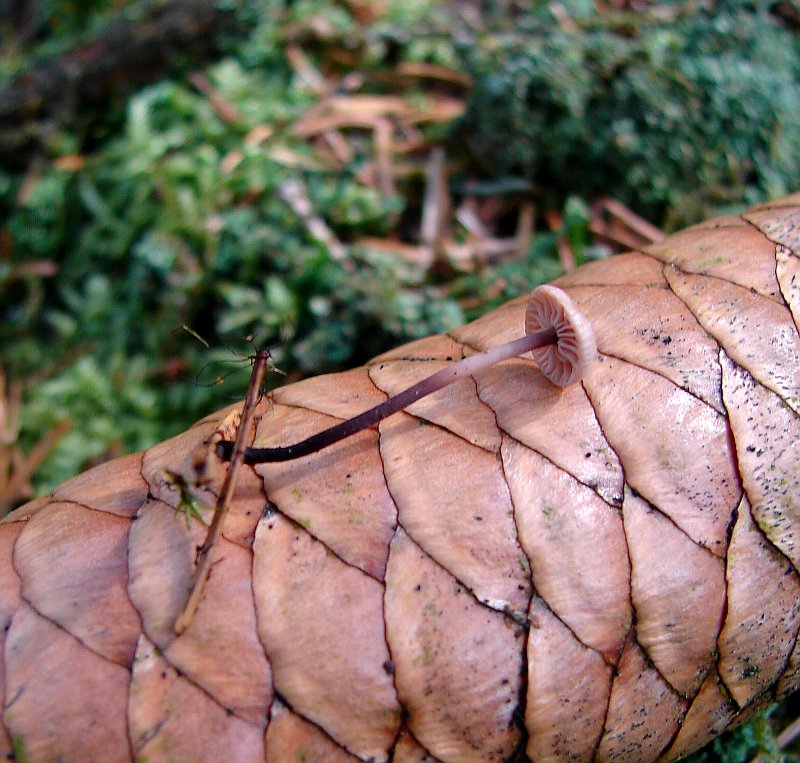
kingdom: Fungi
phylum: Basidiomycota
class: Agaricomycetes
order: Agaricales
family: Omphalotaceae
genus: Paragymnopus
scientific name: Paragymnopus perforans
